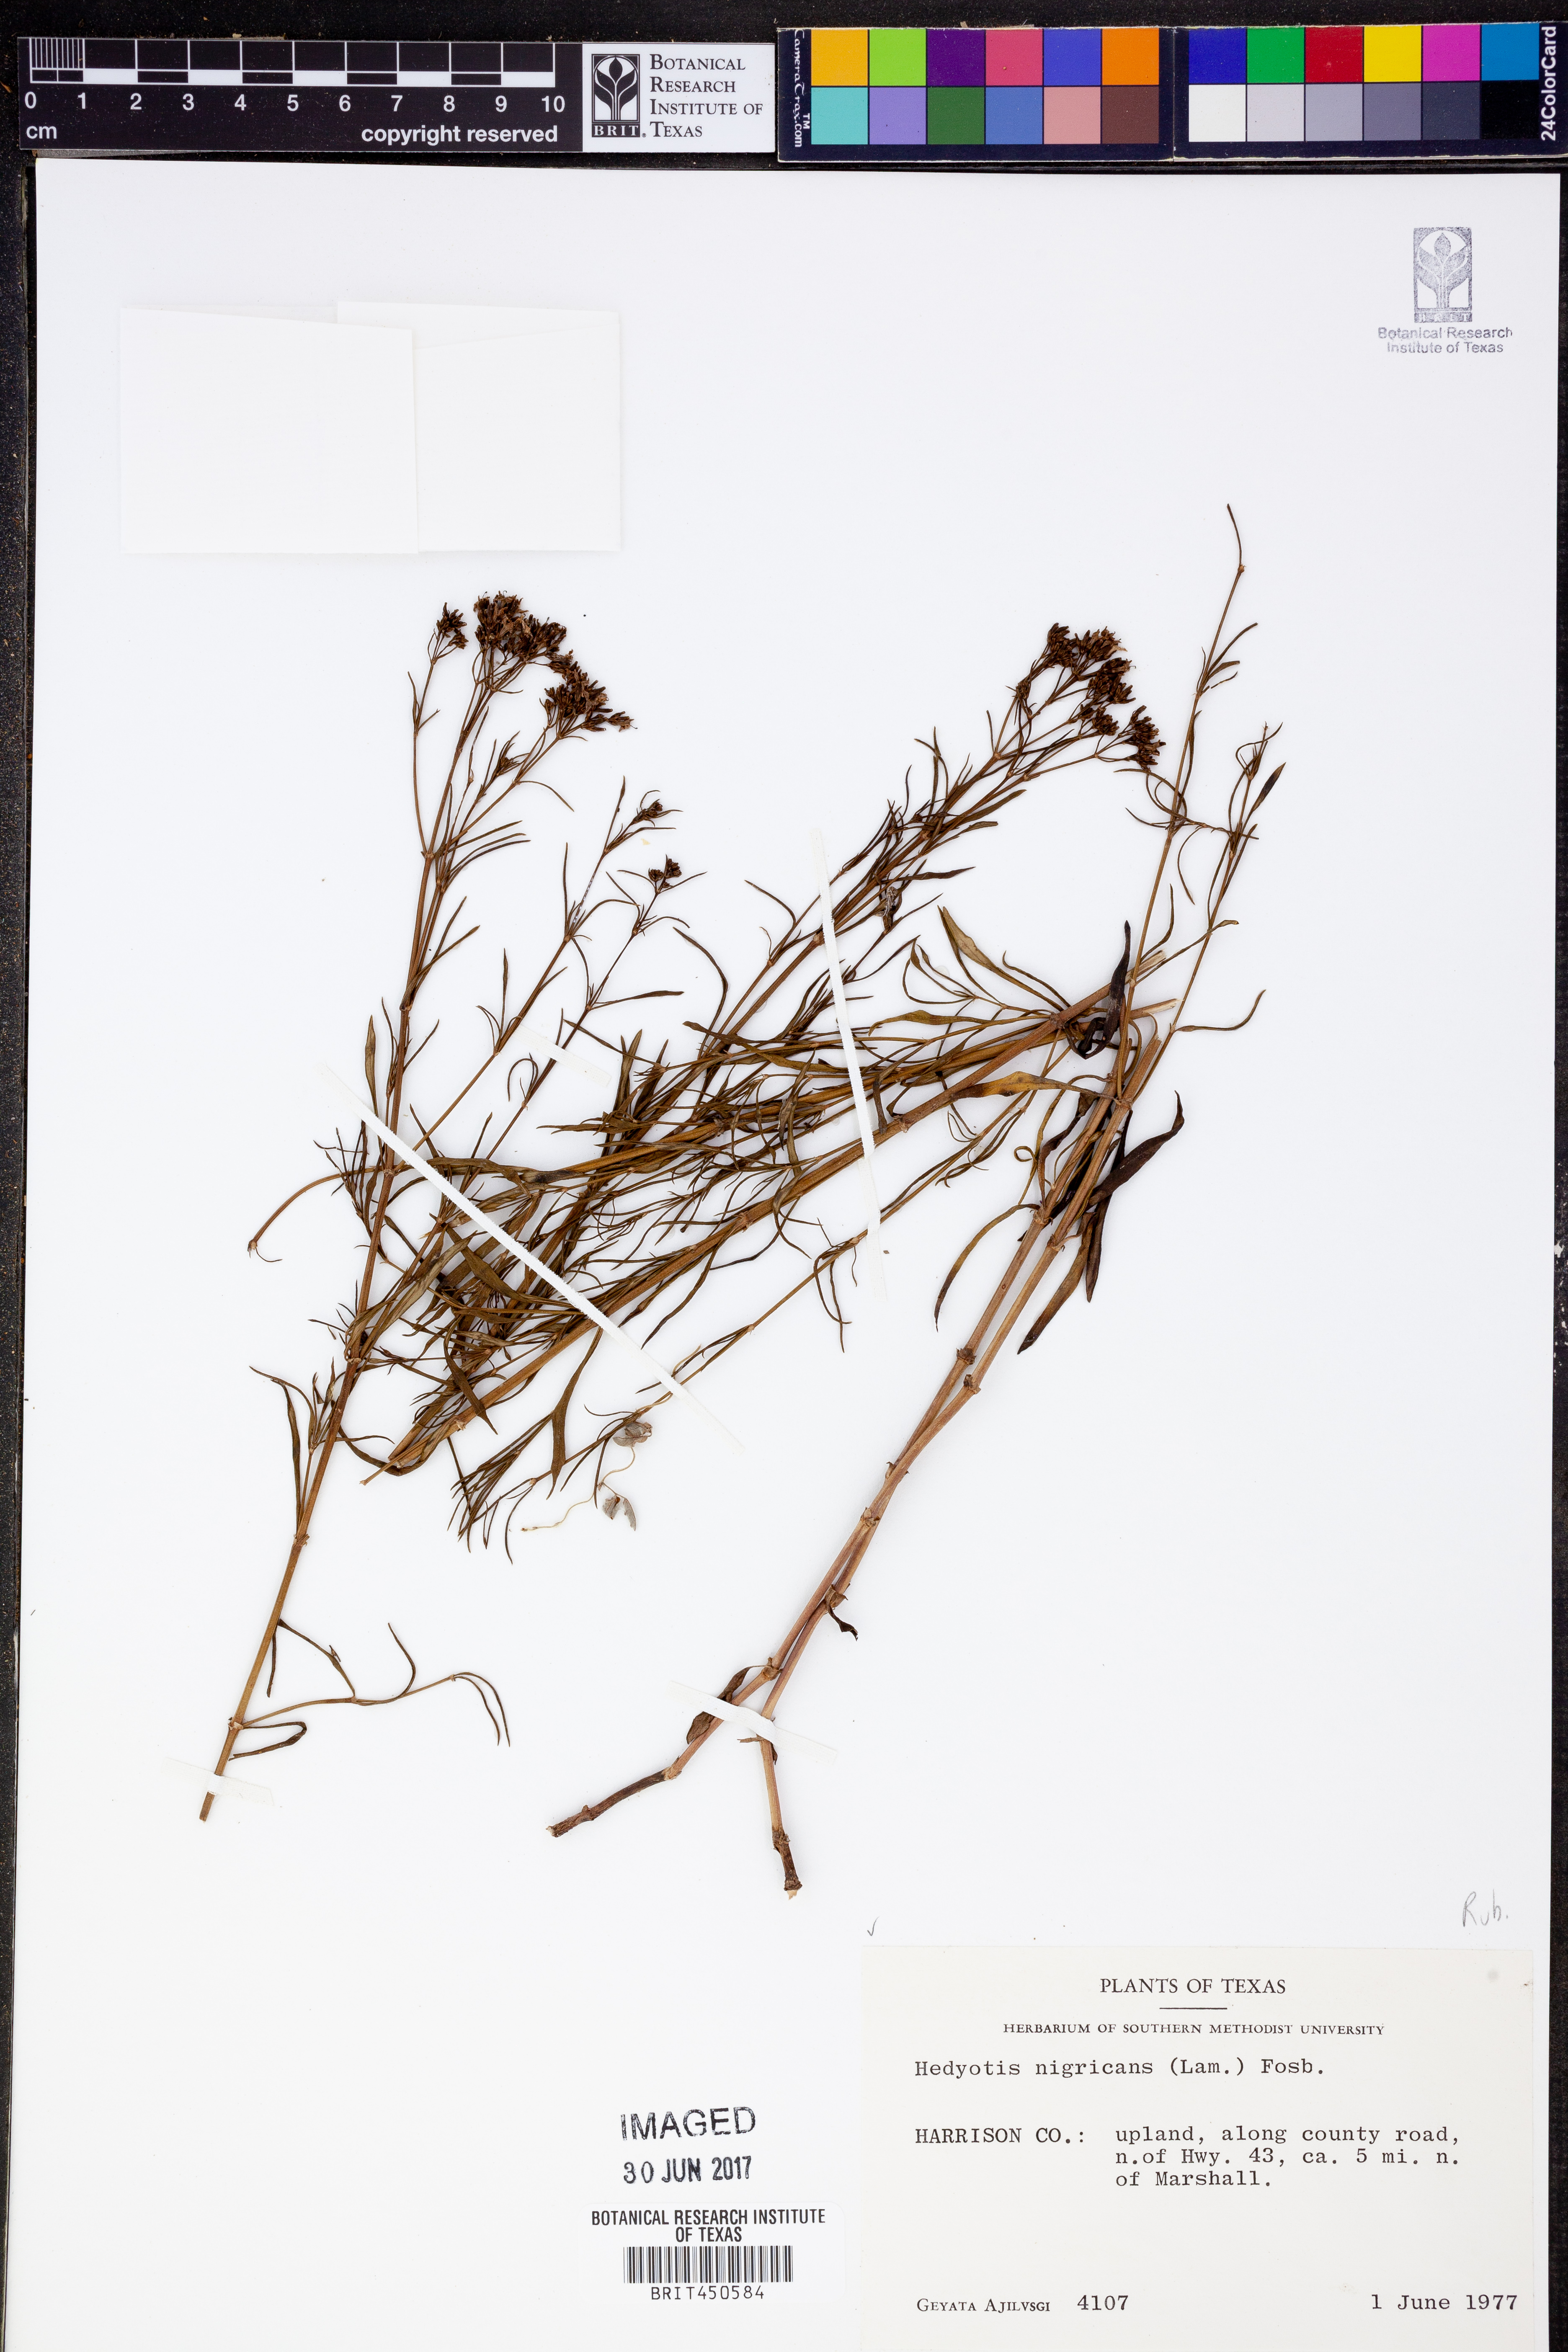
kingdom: Plantae
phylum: Tracheophyta
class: Magnoliopsida
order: Gentianales
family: Rubiaceae
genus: Stenaria
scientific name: Stenaria nigricans
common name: Diamondflowers
